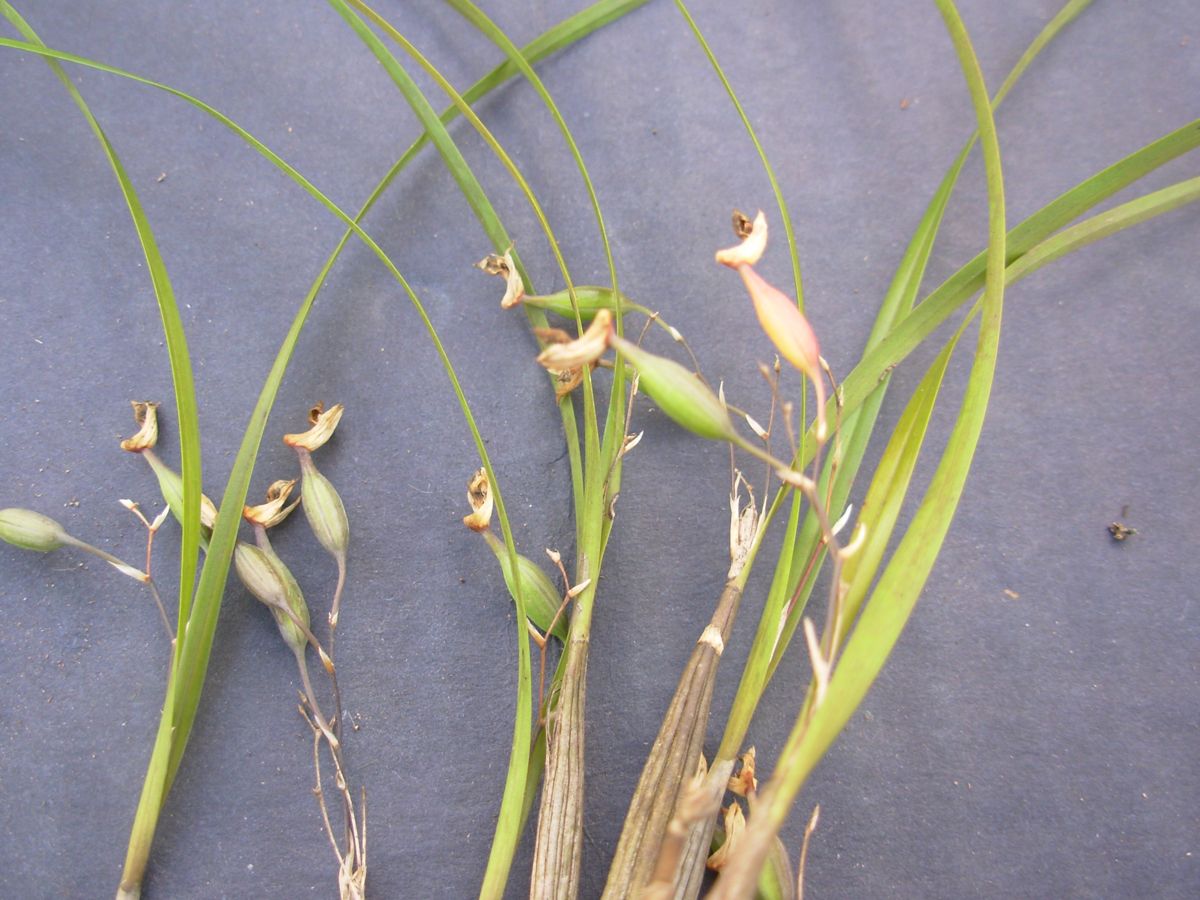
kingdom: Plantae
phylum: Tracheophyta
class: Liliopsida
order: Asparagales
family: Orchidaceae
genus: Scaphyglottis
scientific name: Scaphyglottis crurigera
